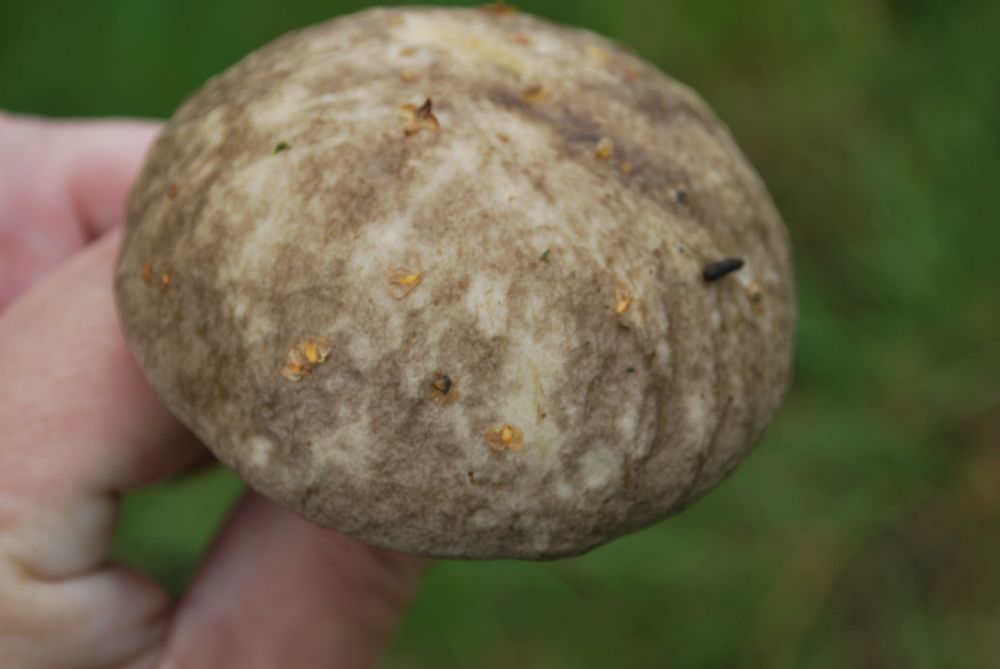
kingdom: Fungi
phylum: Basidiomycota
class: Agaricomycetes
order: Boletales
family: Boletaceae
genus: Leccinum
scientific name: Leccinum variicolor
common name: flammet skælrørhat
